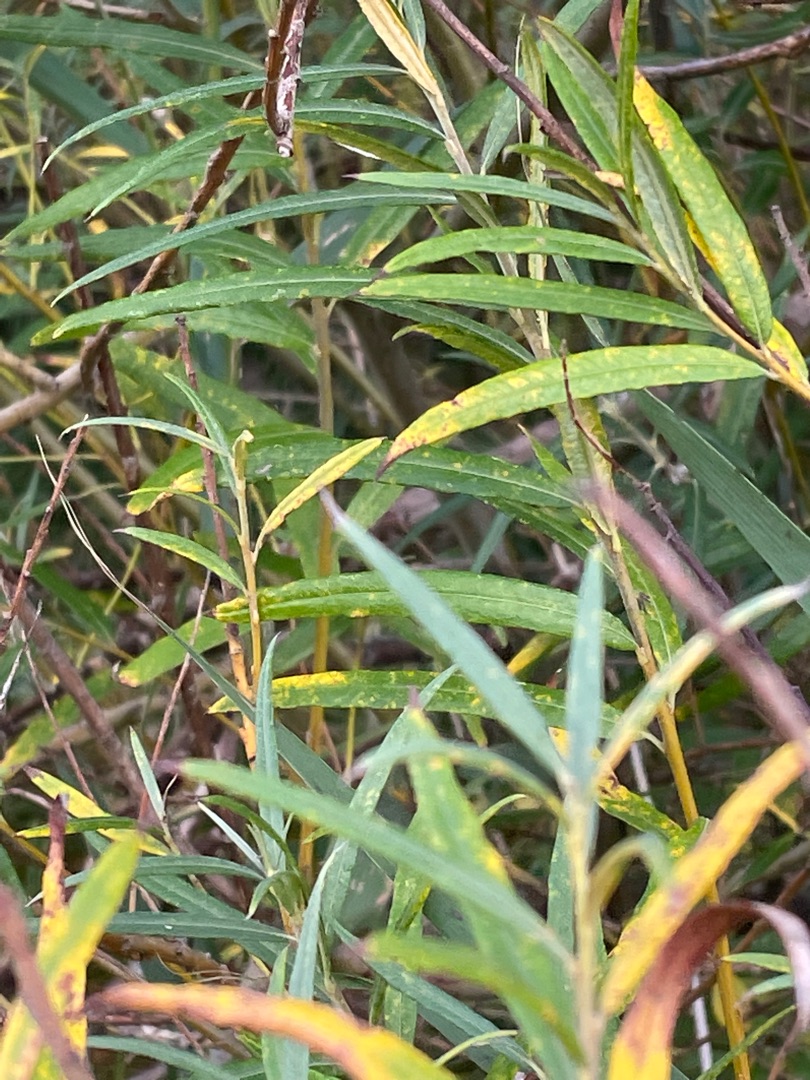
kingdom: Plantae
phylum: Tracheophyta
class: Magnoliopsida
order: Malpighiales
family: Salicaceae
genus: Salix
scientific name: Salix viminalis
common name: Bånd-pil
